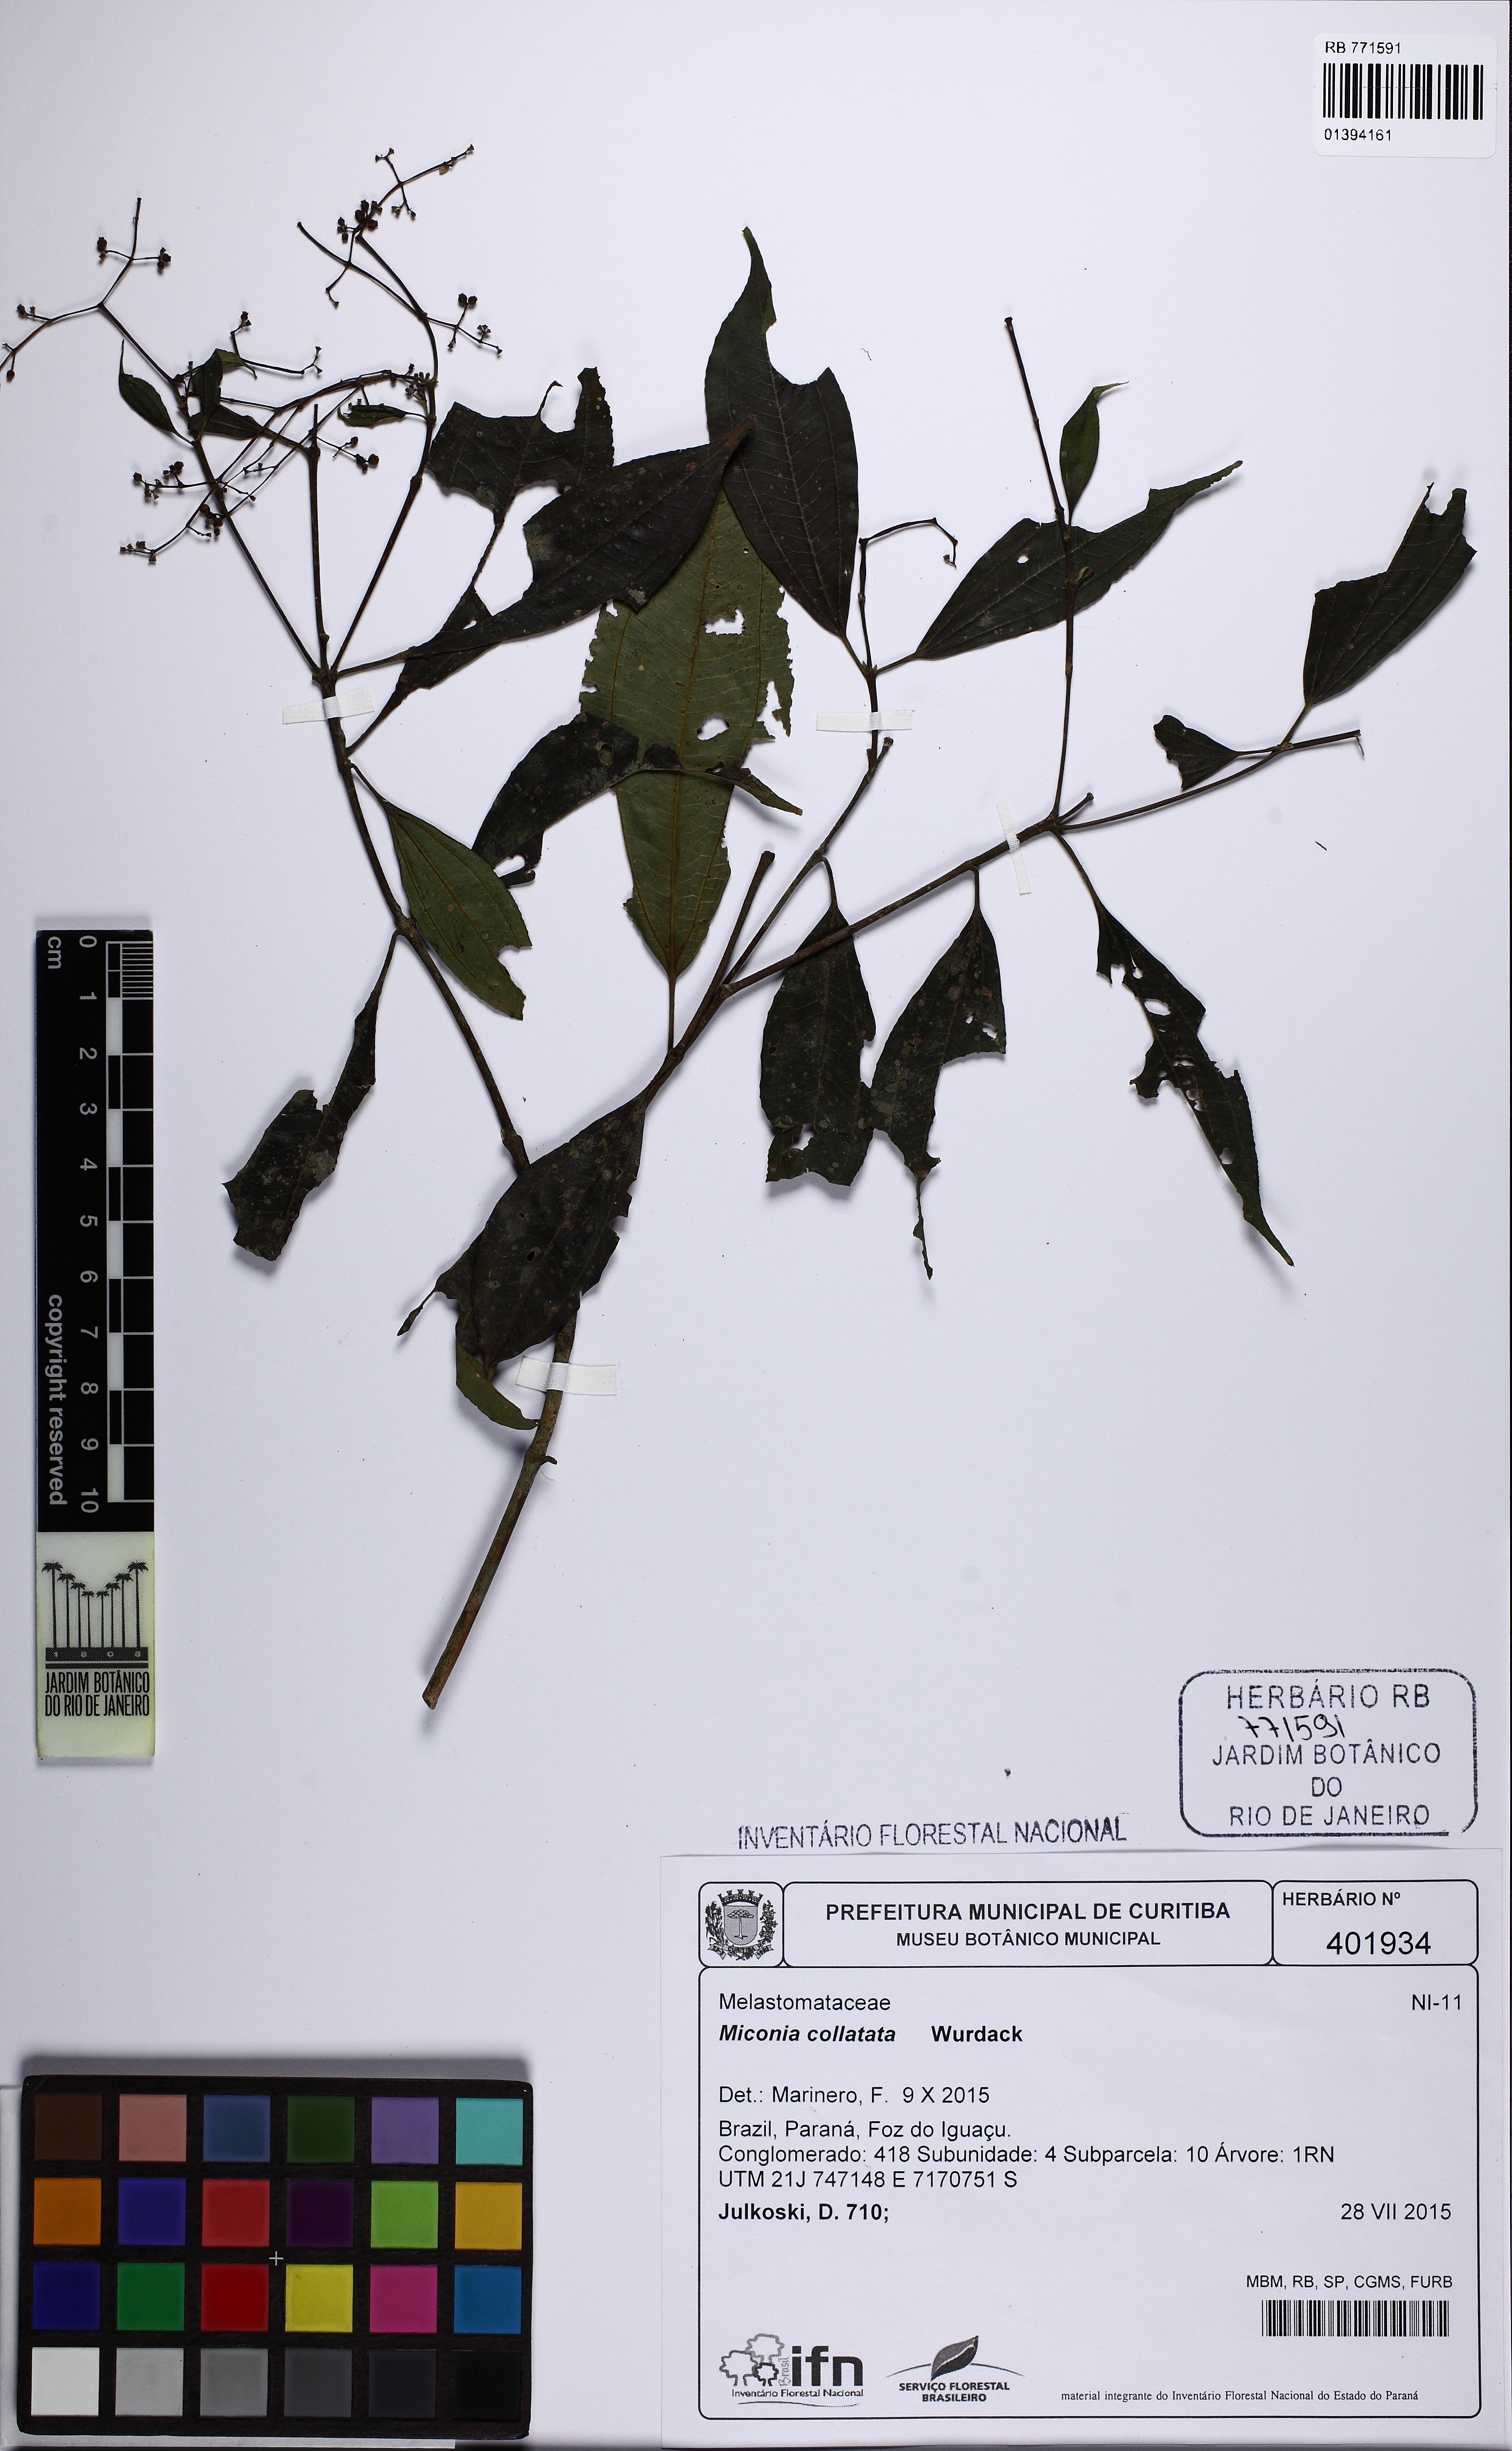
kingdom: Plantae
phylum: Tracheophyta
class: Magnoliopsida
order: Myrtales
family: Melastomataceae
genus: Miconia
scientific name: Miconia collatata
